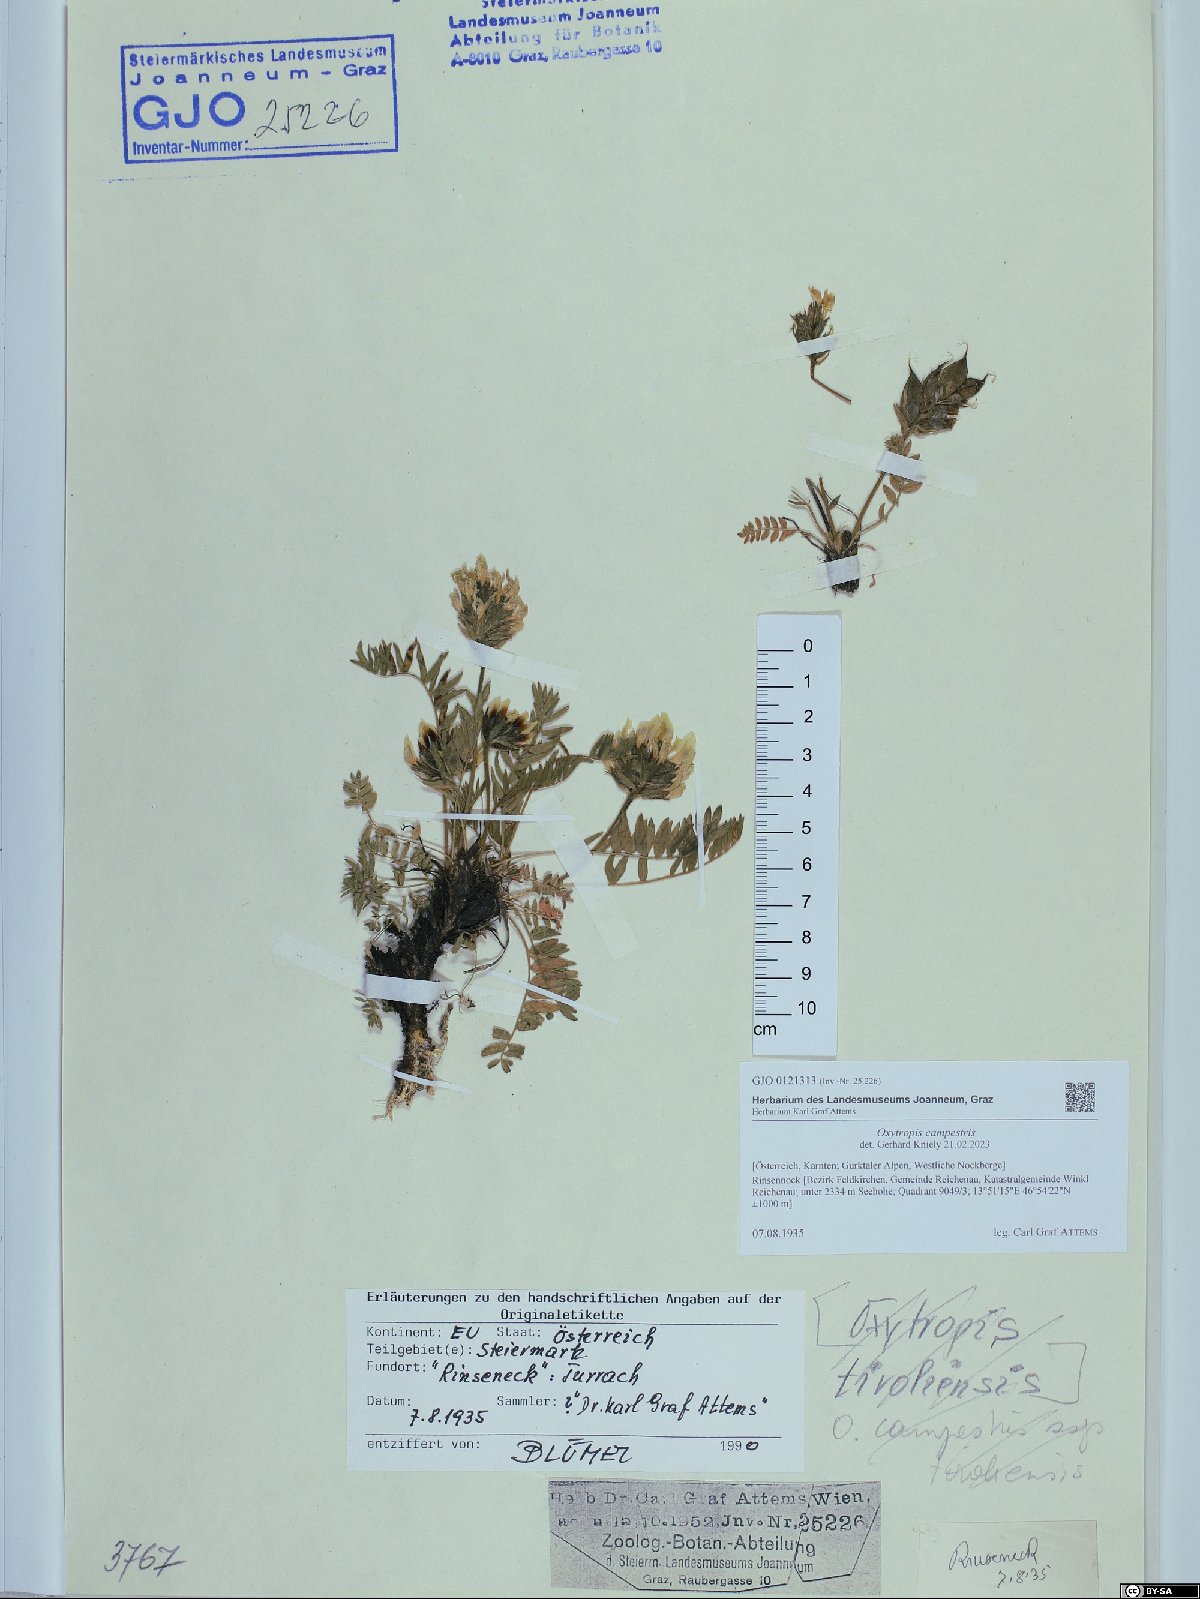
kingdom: Plantae
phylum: Tracheophyta
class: Magnoliopsida
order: Fabales
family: Fabaceae
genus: Oxytropis
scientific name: Oxytropis campestris
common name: Field locoweed
